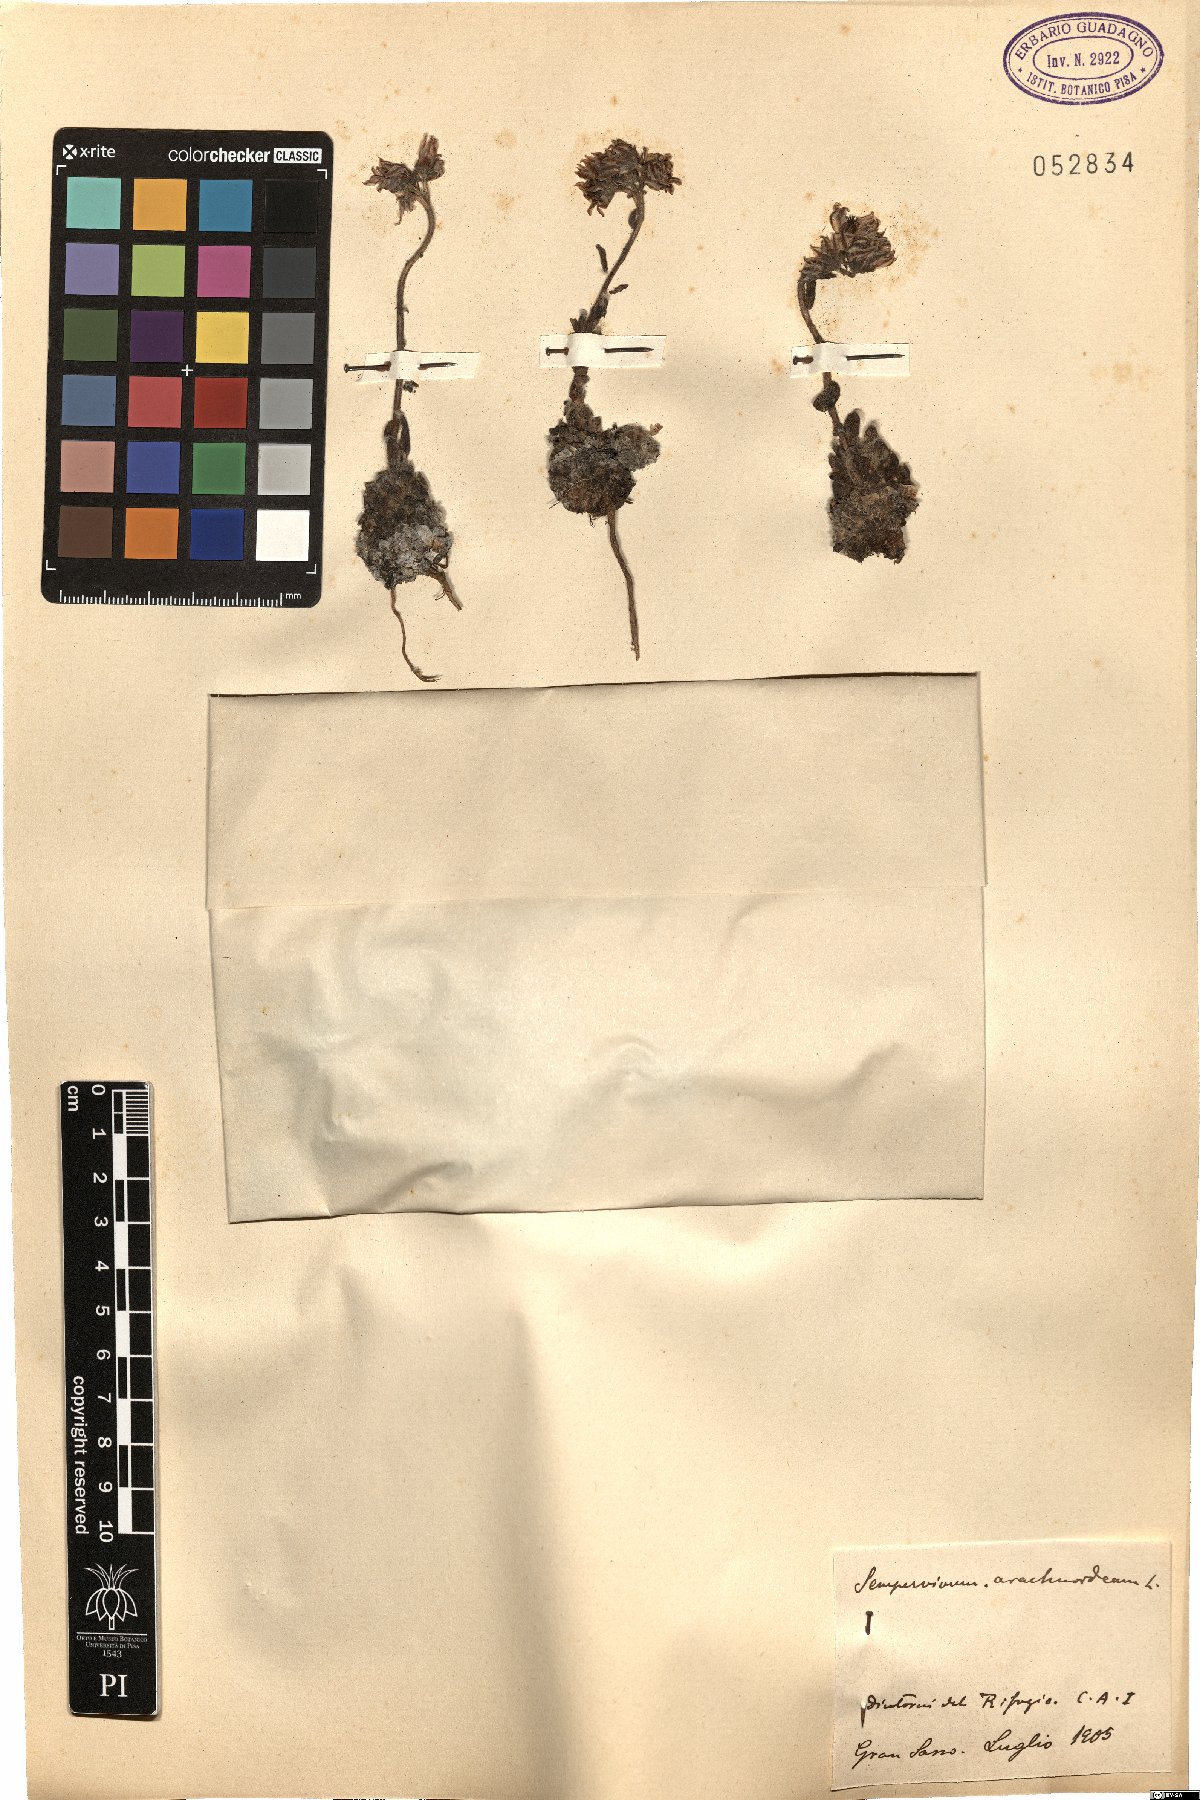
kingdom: Plantae
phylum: Tracheophyta
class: Magnoliopsida
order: Saxifragales
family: Crassulaceae
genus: Sempervivum
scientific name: Sempervivum arachnoideum
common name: Cobweb house-leek
